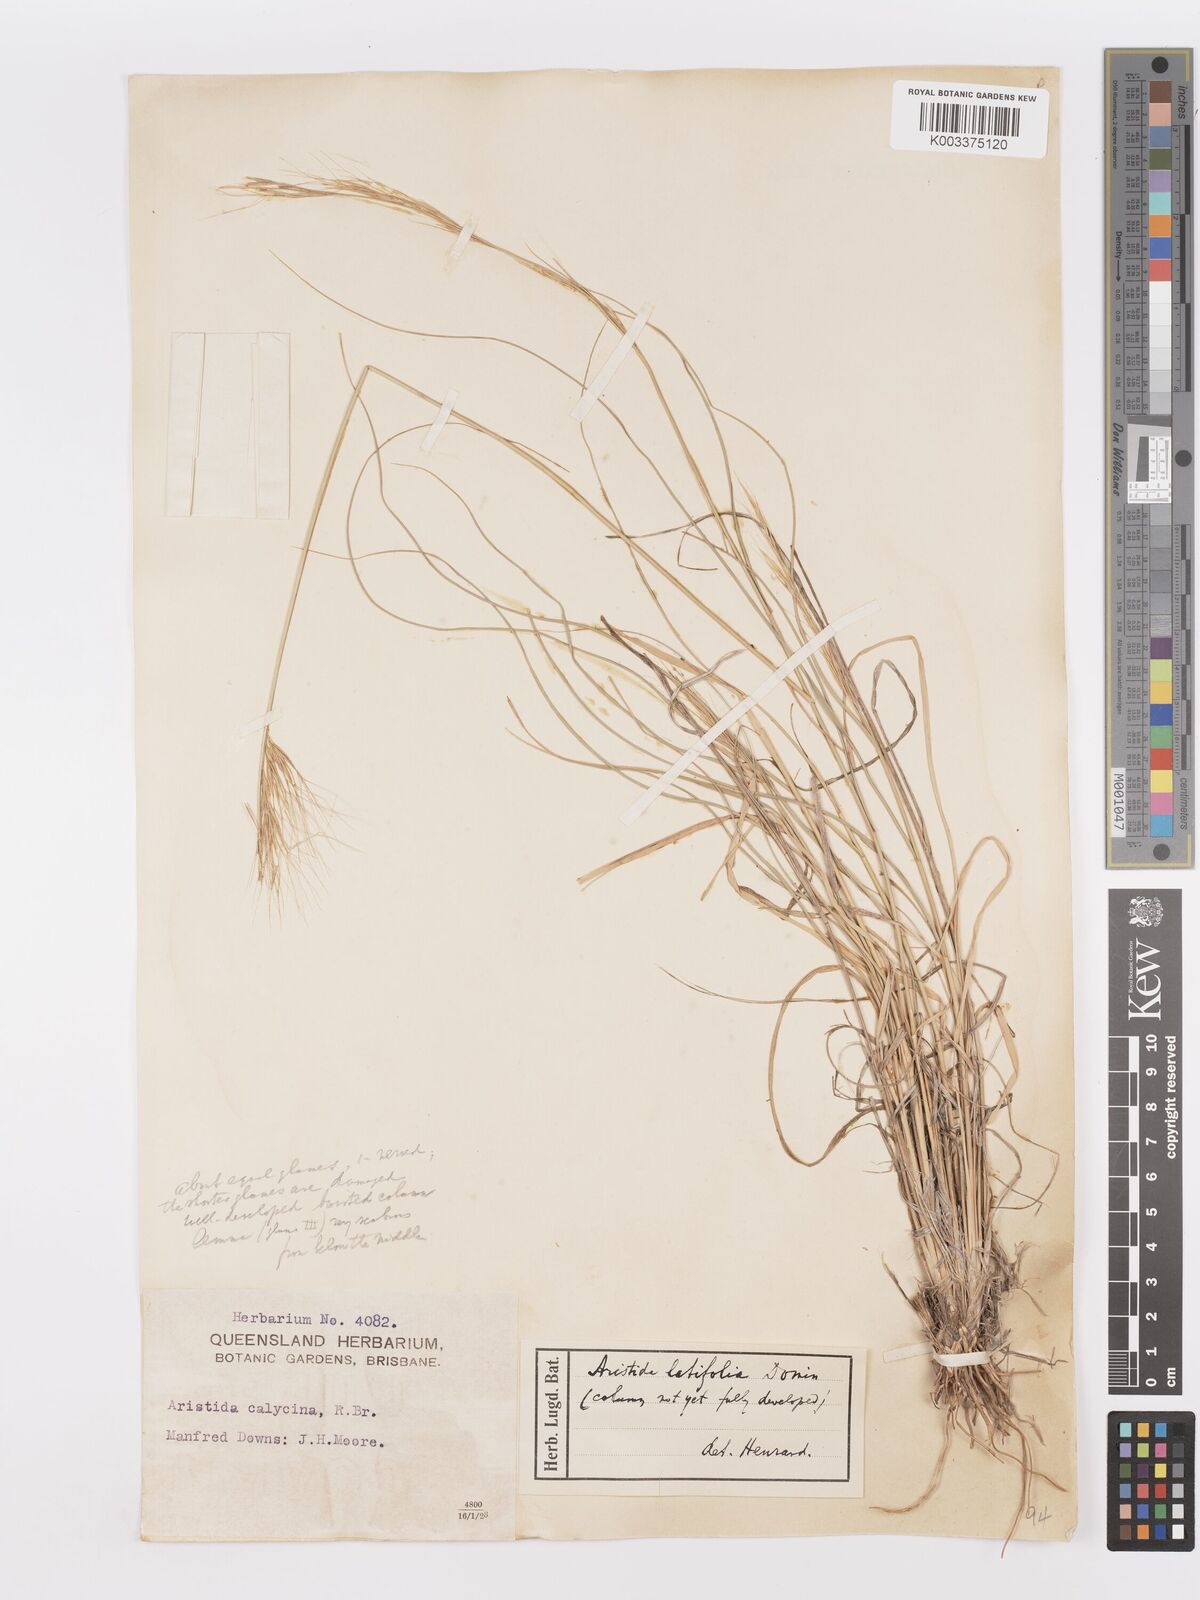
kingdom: Plantae
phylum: Tracheophyta
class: Liliopsida
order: Poales
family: Poaceae
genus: Aristida
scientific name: Aristida latifolia
